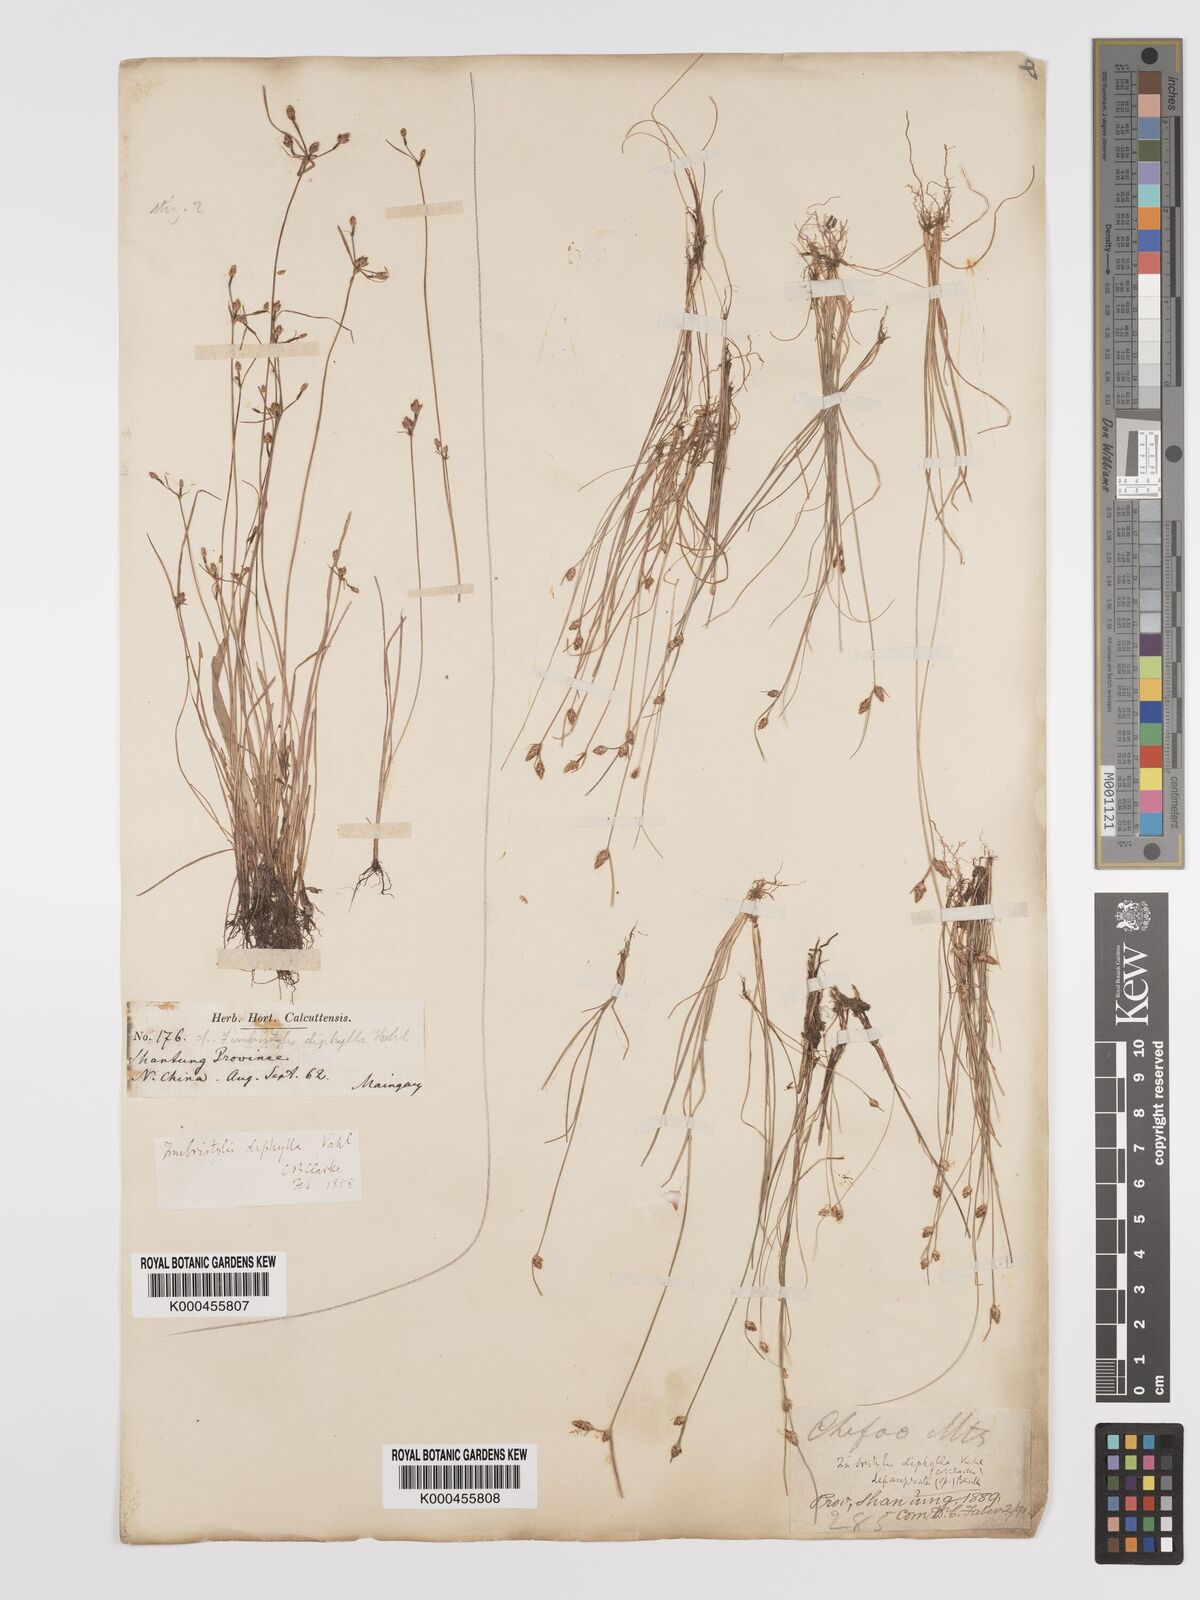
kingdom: Plantae
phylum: Tracheophyta
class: Liliopsida
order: Poales
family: Cyperaceae
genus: Fimbristylis
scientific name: Fimbristylis dichotoma
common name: Forked fimbry
